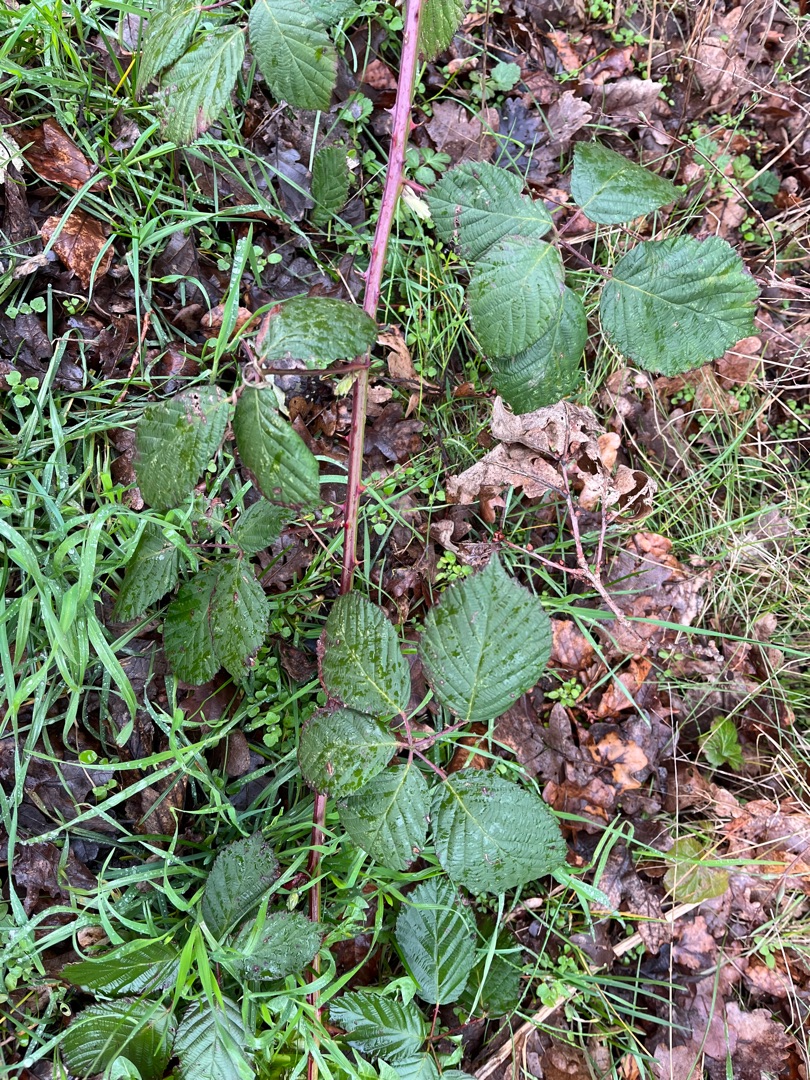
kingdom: Plantae
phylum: Tracheophyta
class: Magnoliopsida
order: Rosales
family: Rosaceae
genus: Rubus
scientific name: Rubus armeniacus
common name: Armensk brombær
